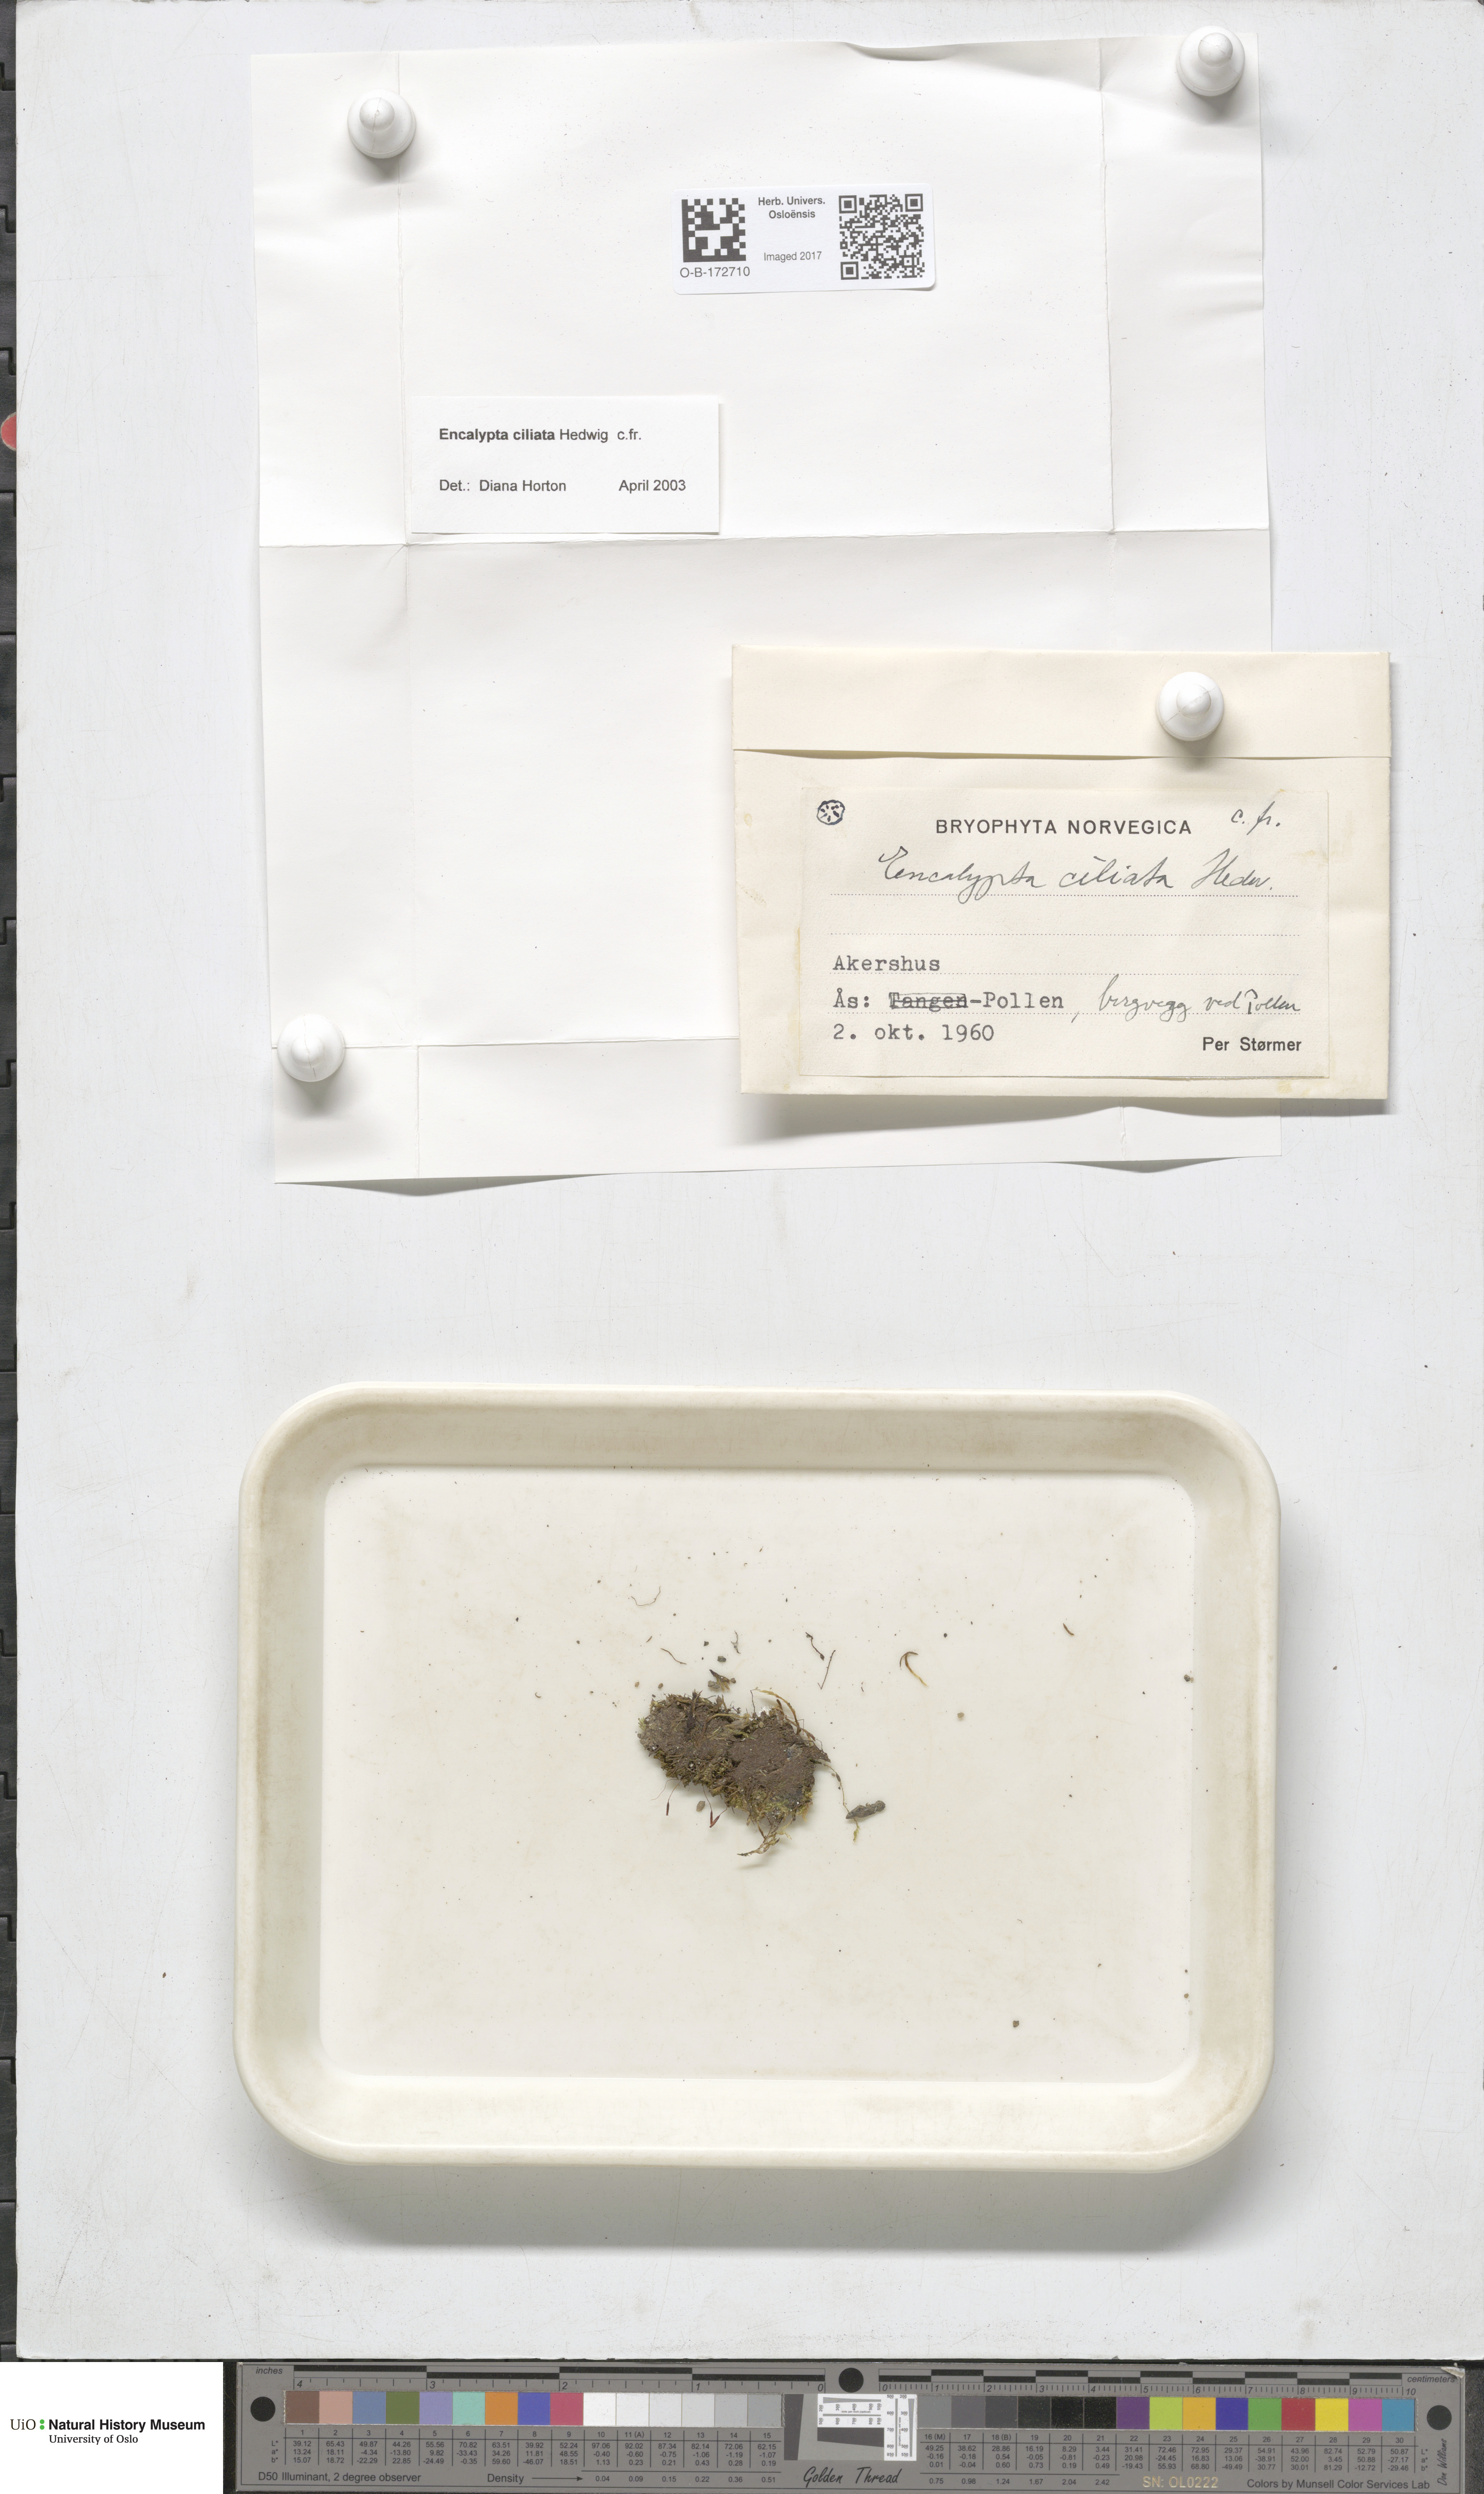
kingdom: Plantae
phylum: Bryophyta
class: Bryopsida
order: Encalyptales
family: Encalyptaceae
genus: Encalypta
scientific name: Encalypta ciliata
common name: Fringed extinguisher-moss
